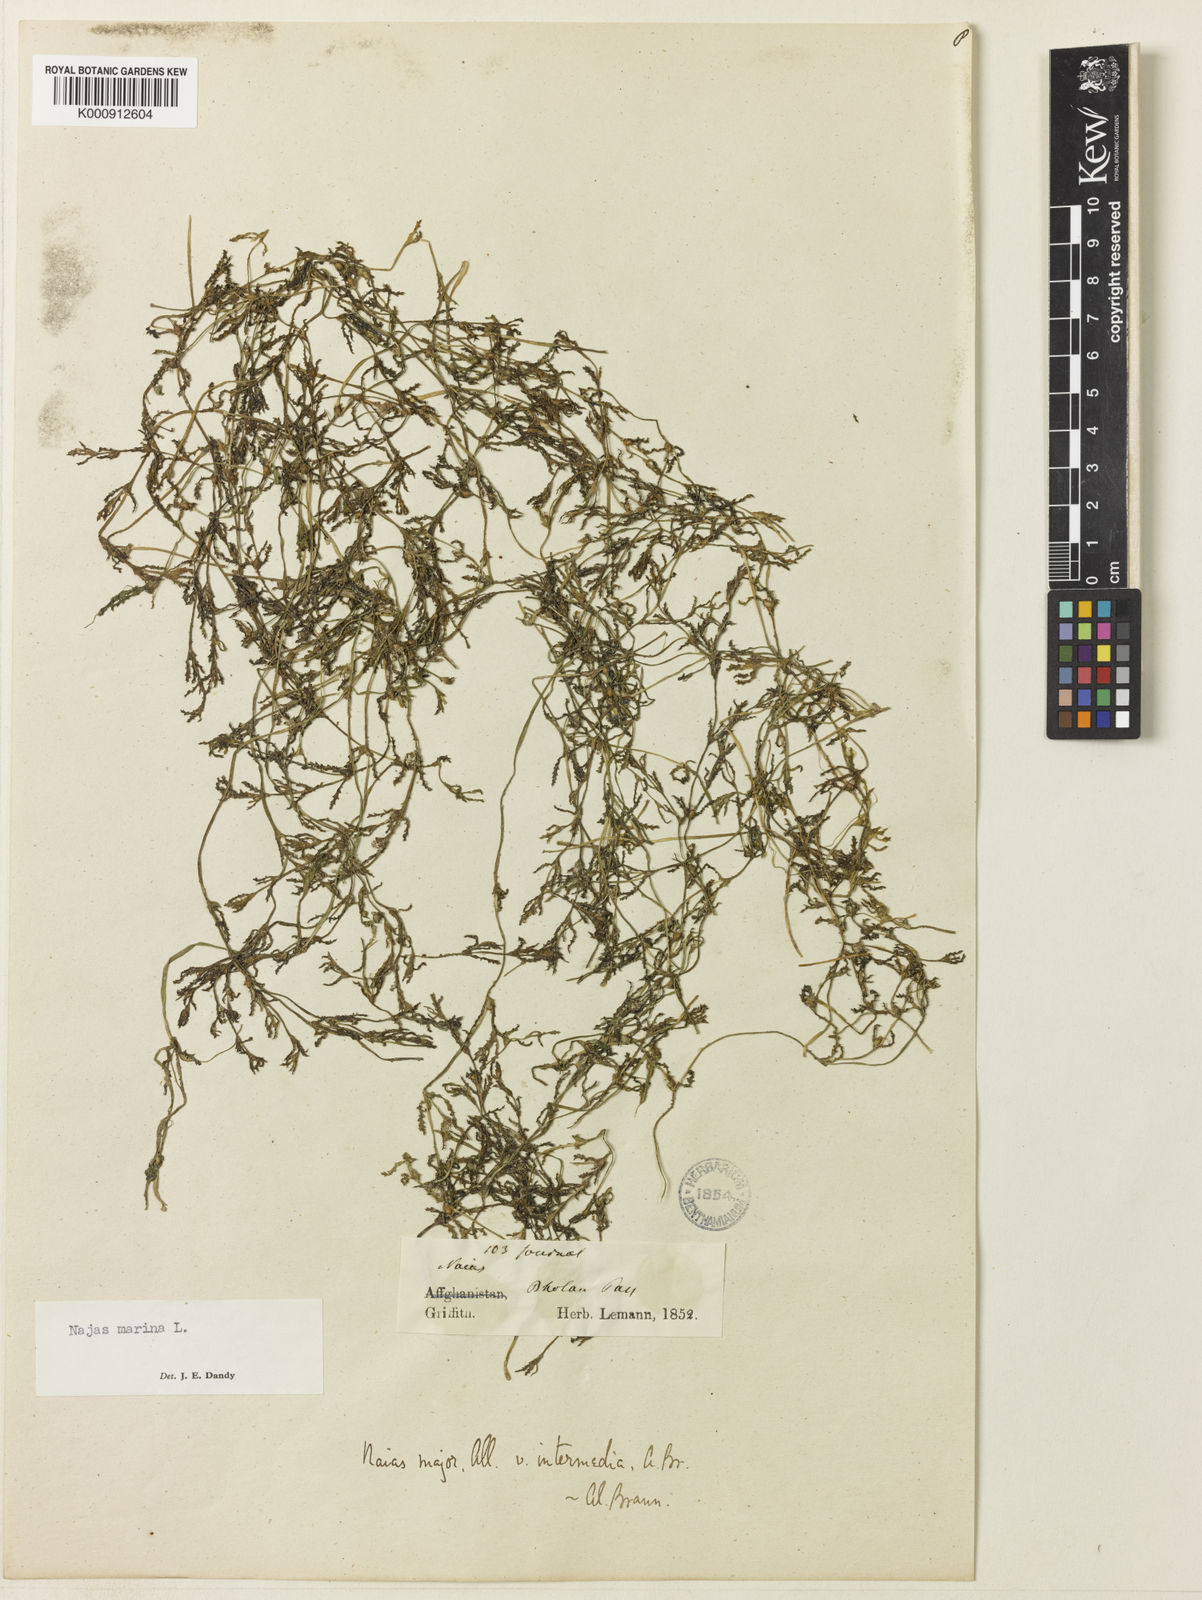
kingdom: Plantae
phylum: Tracheophyta
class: Liliopsida
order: Alismatales
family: Hydrocharitaceae
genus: Najas
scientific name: Najas marina
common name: Holly-leaved naiad
